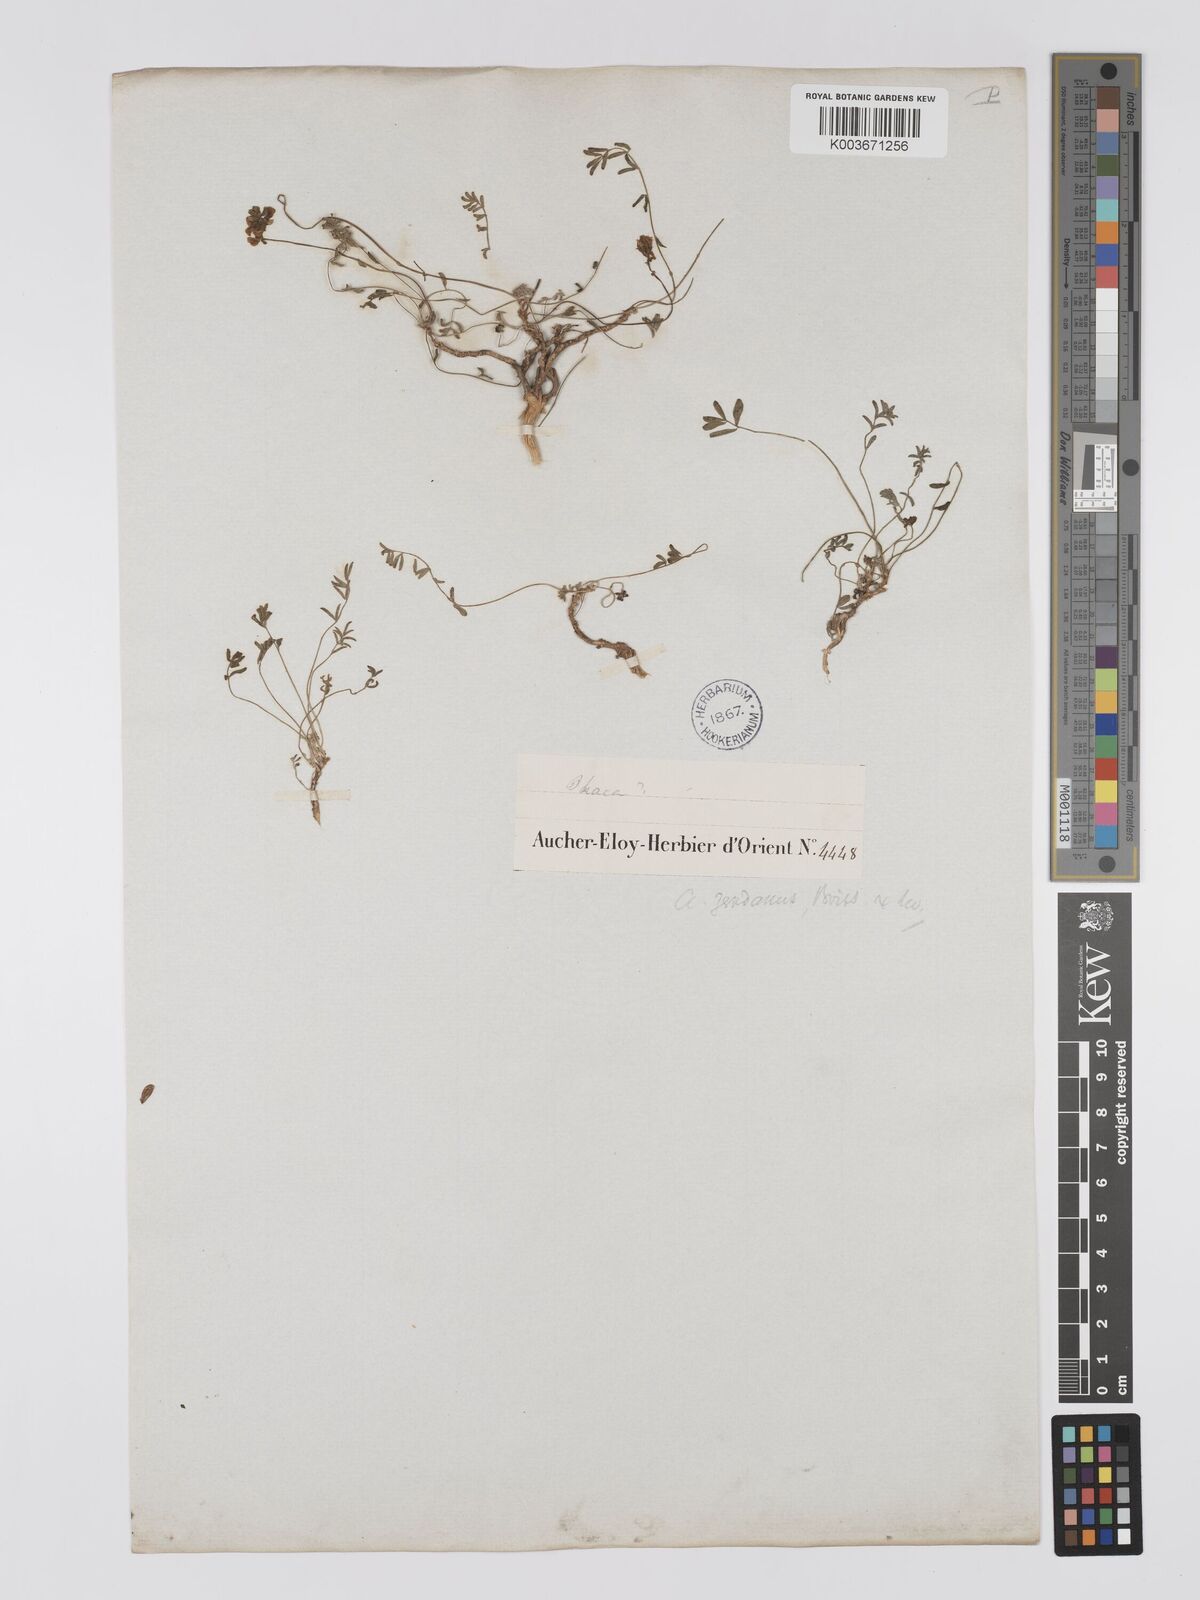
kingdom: Plantae
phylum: Tracheophyta
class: Magnoliopsida
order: Fabales
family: Fabaceae
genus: Astragalus
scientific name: Astragalus zerdanus
